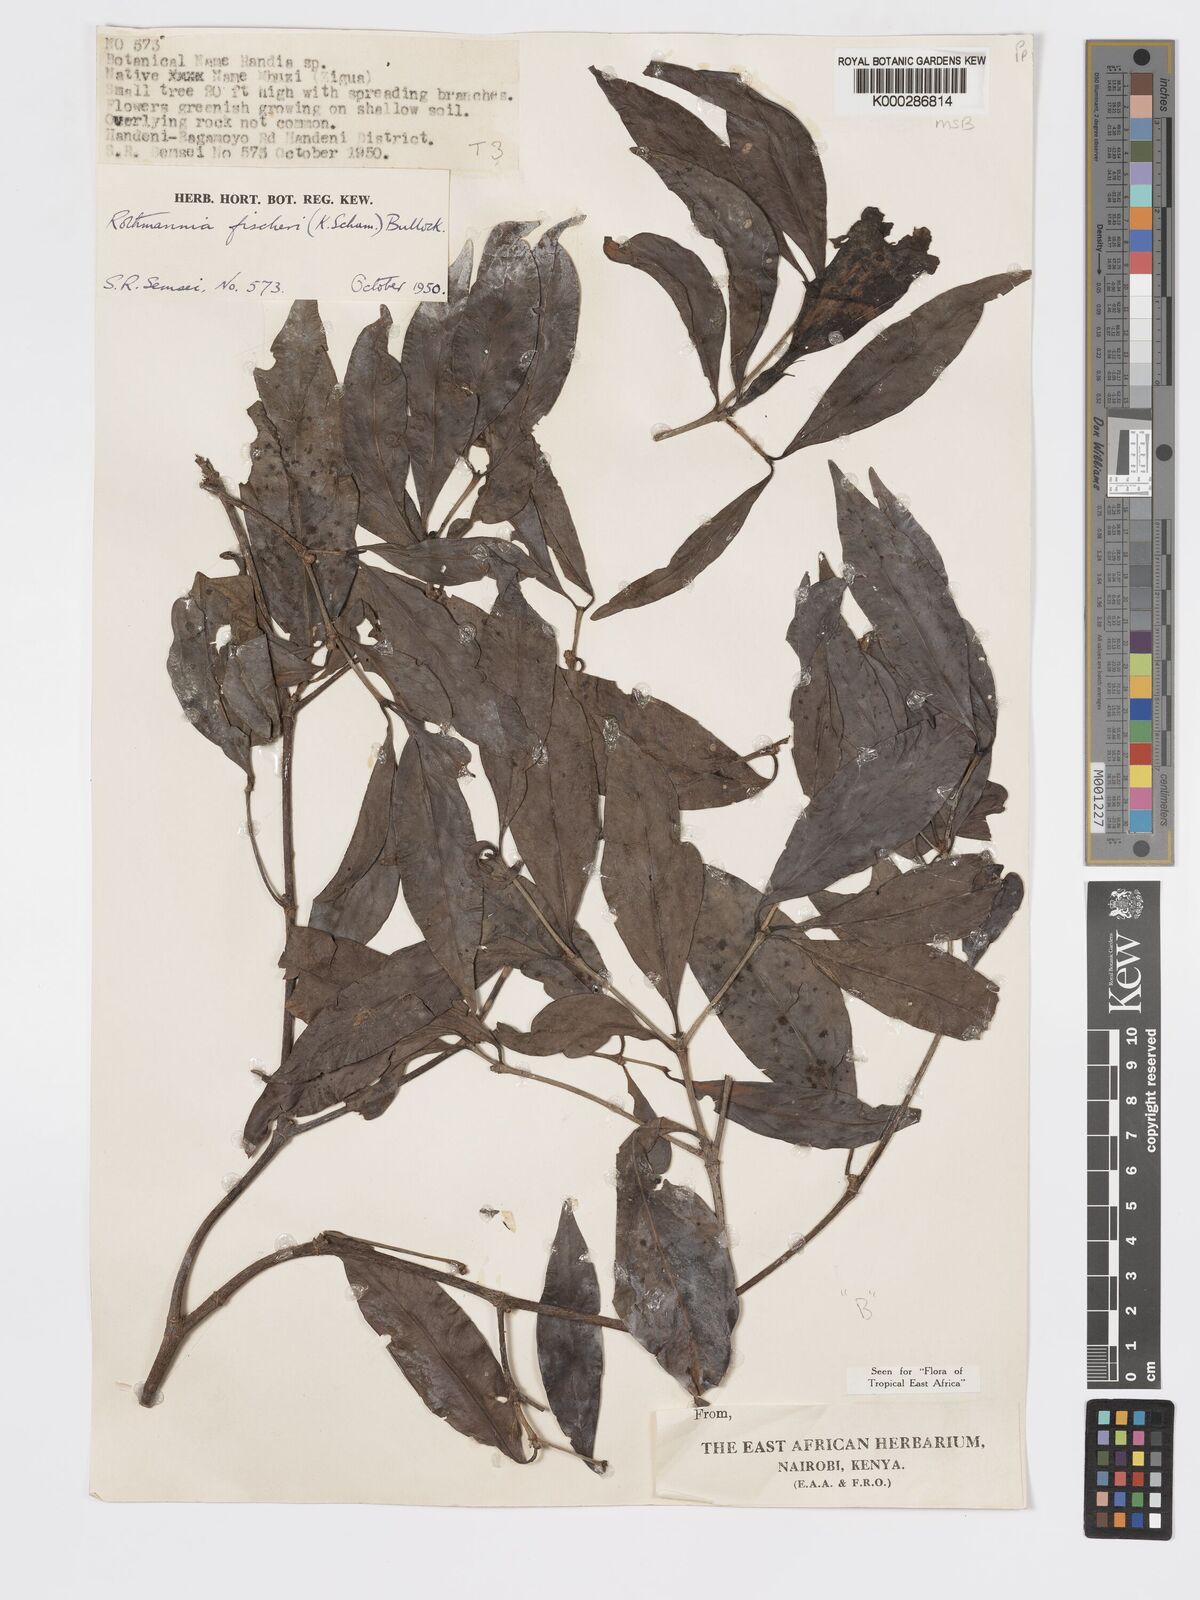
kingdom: Plantae
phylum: Tracheophyta
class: Magnoliopsida
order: Gentianales
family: Rubiaceae
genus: Rothmannia
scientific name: Rothmannia ravae
